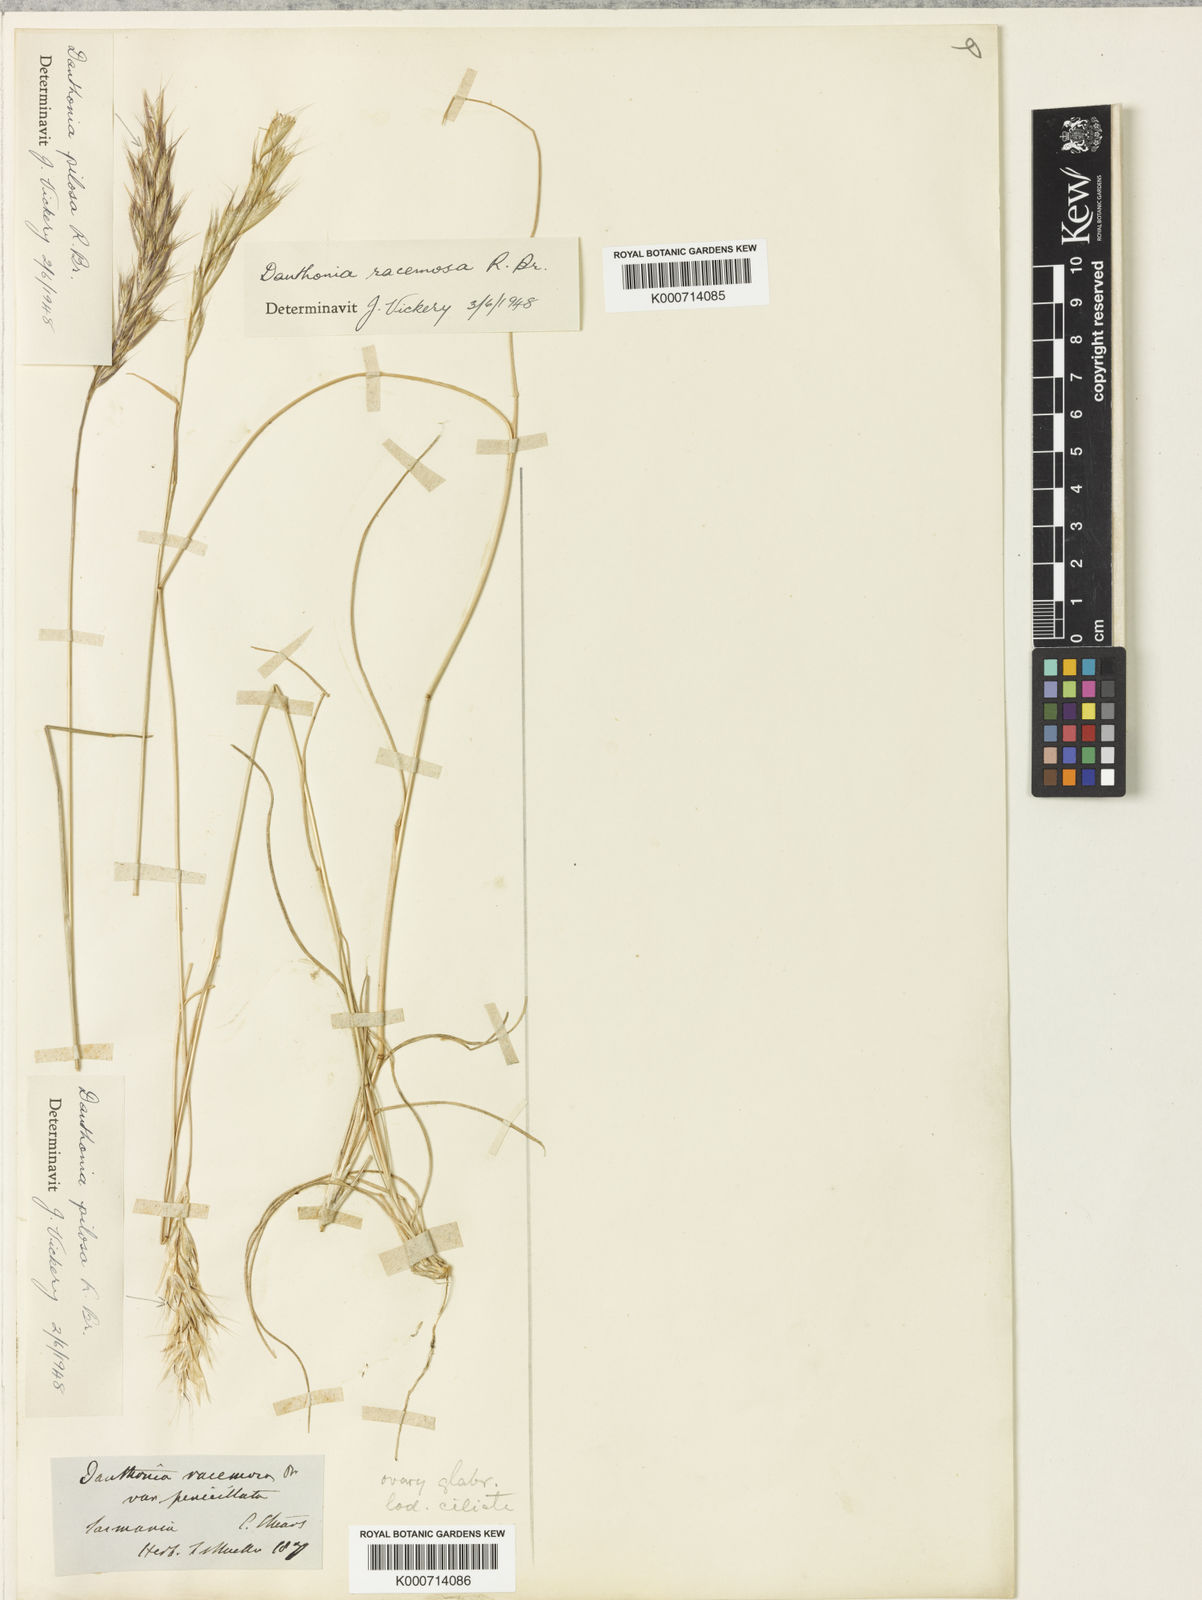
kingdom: Plantae
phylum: Tracheophyta
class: Liliopsida
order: Poales
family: Poaceae
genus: Rytidosperma
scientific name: Rytidosperma racemosum
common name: Wallaby-grass
